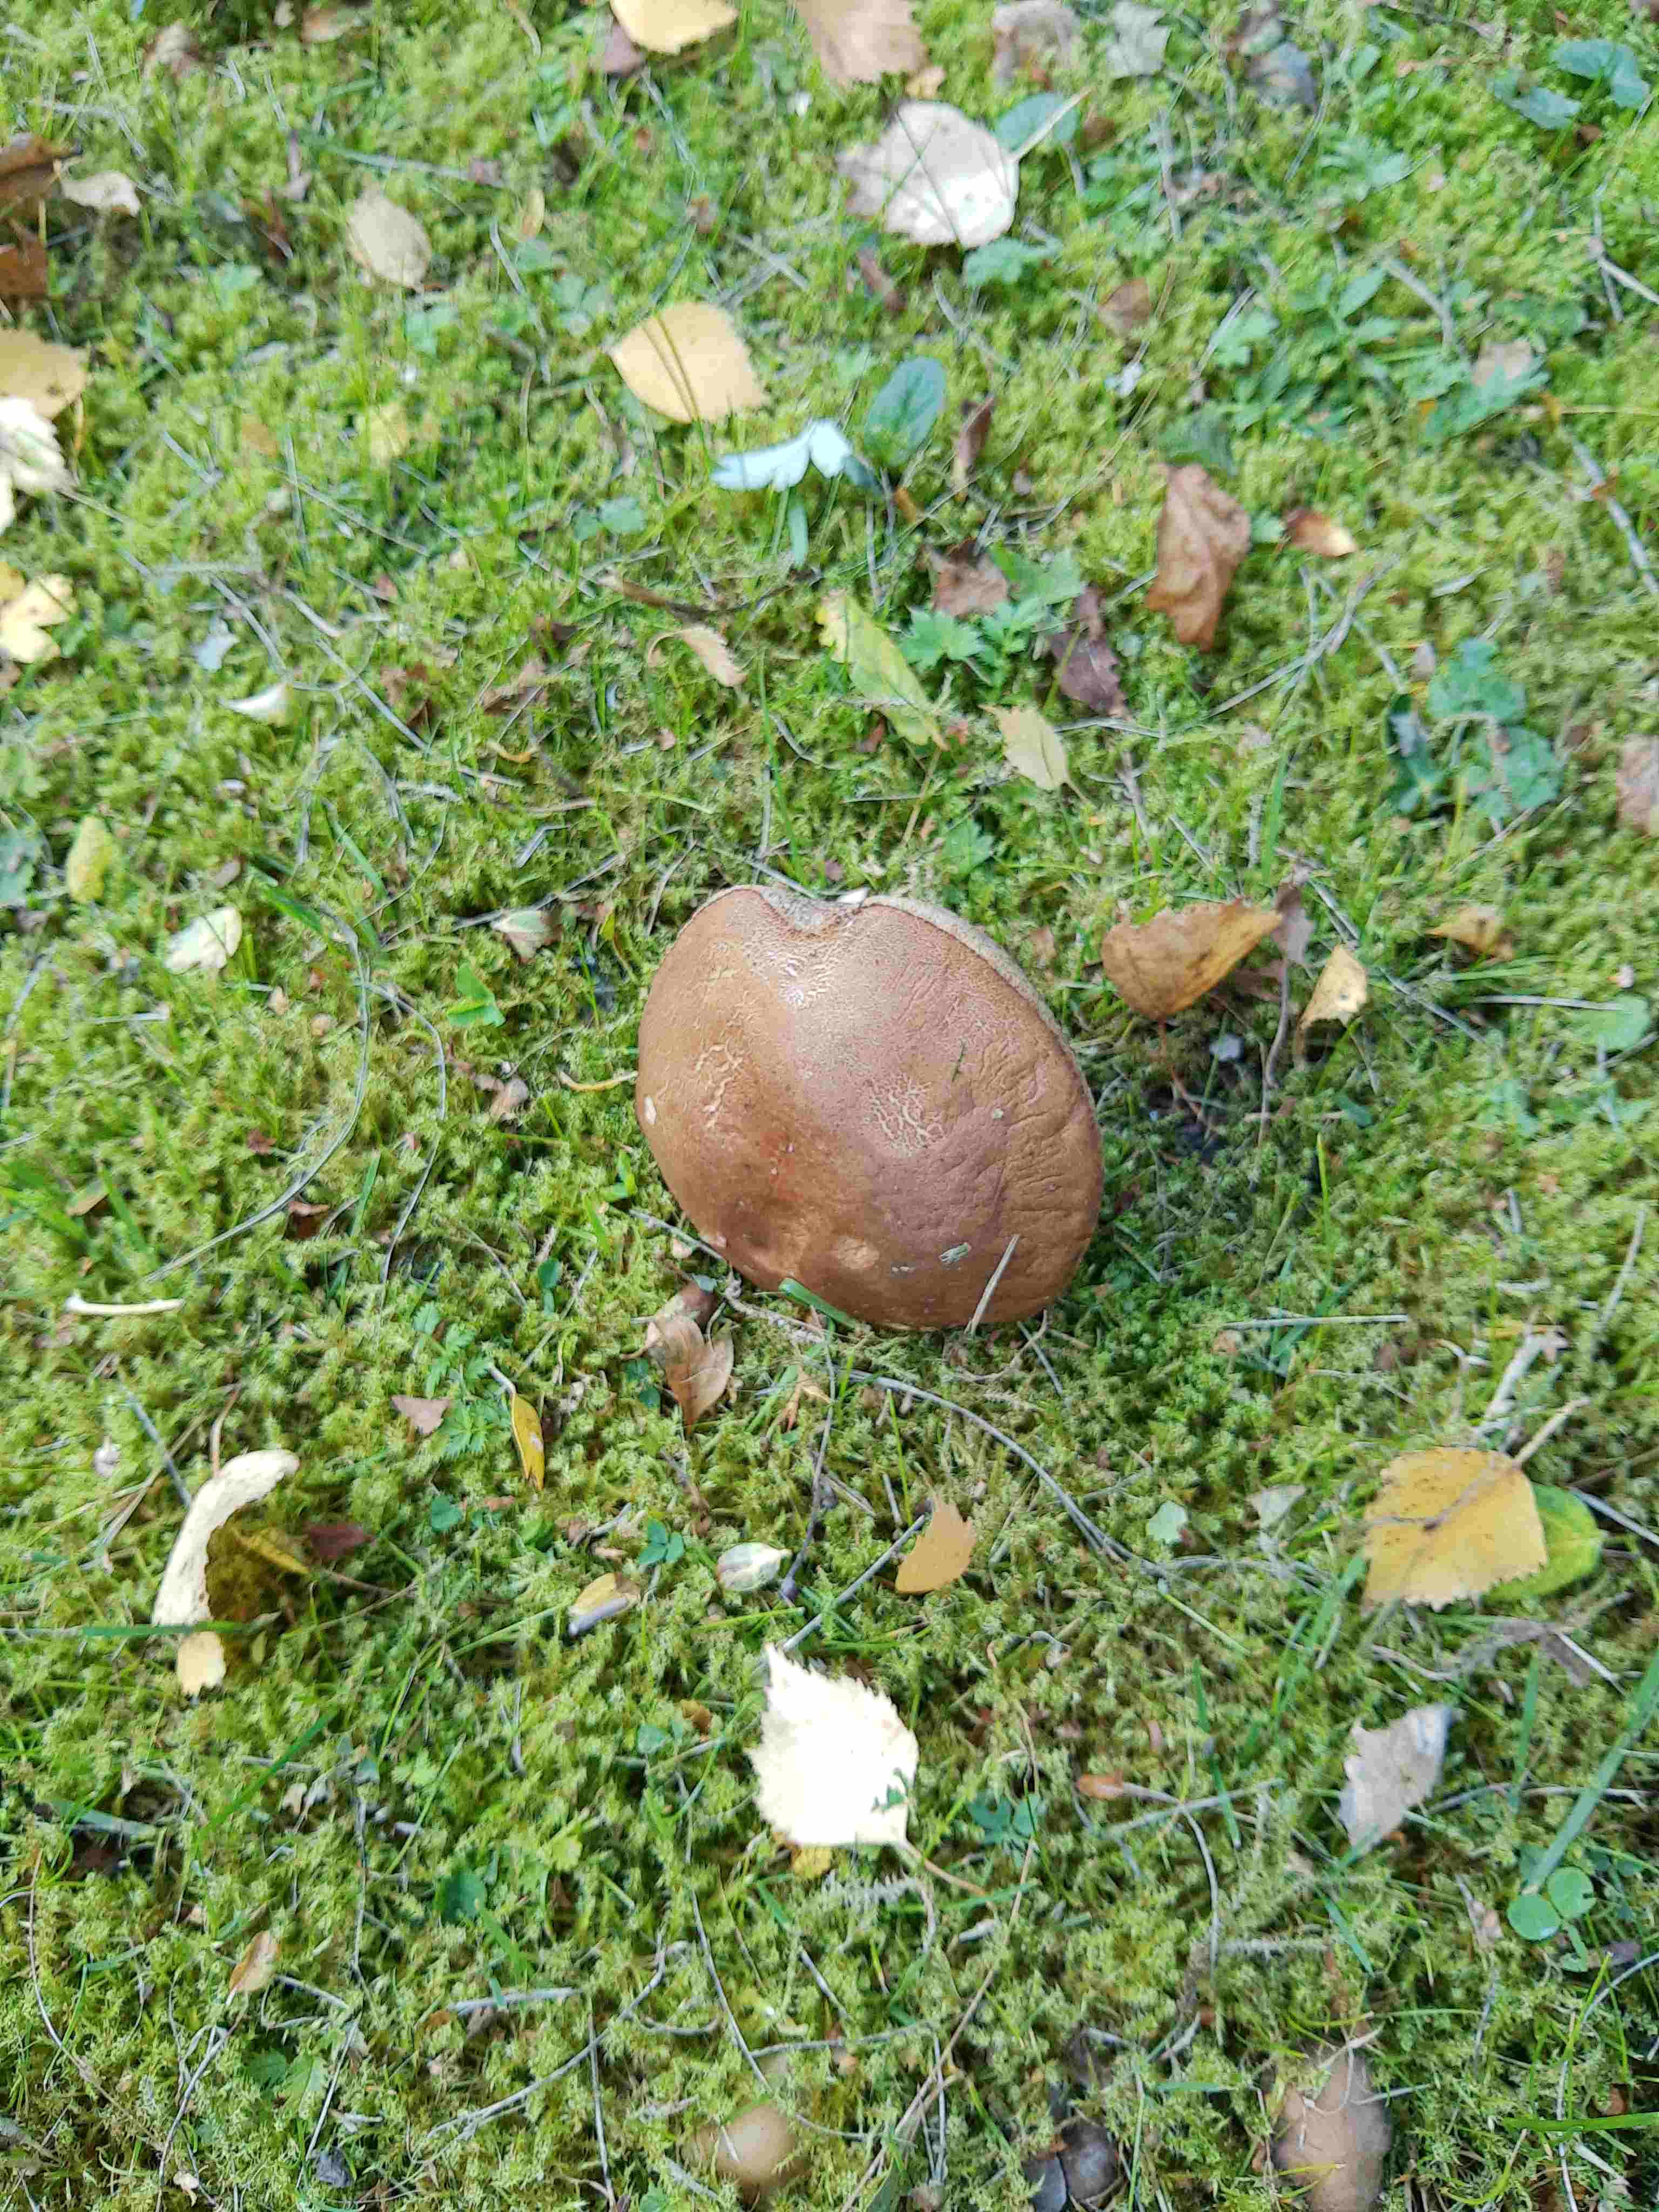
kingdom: Fungi
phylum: Basidiomycota
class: Agaricomycetes
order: Boletales
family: Boletaceae
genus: Leccinum
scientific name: Leccinum
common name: skælrørhat
